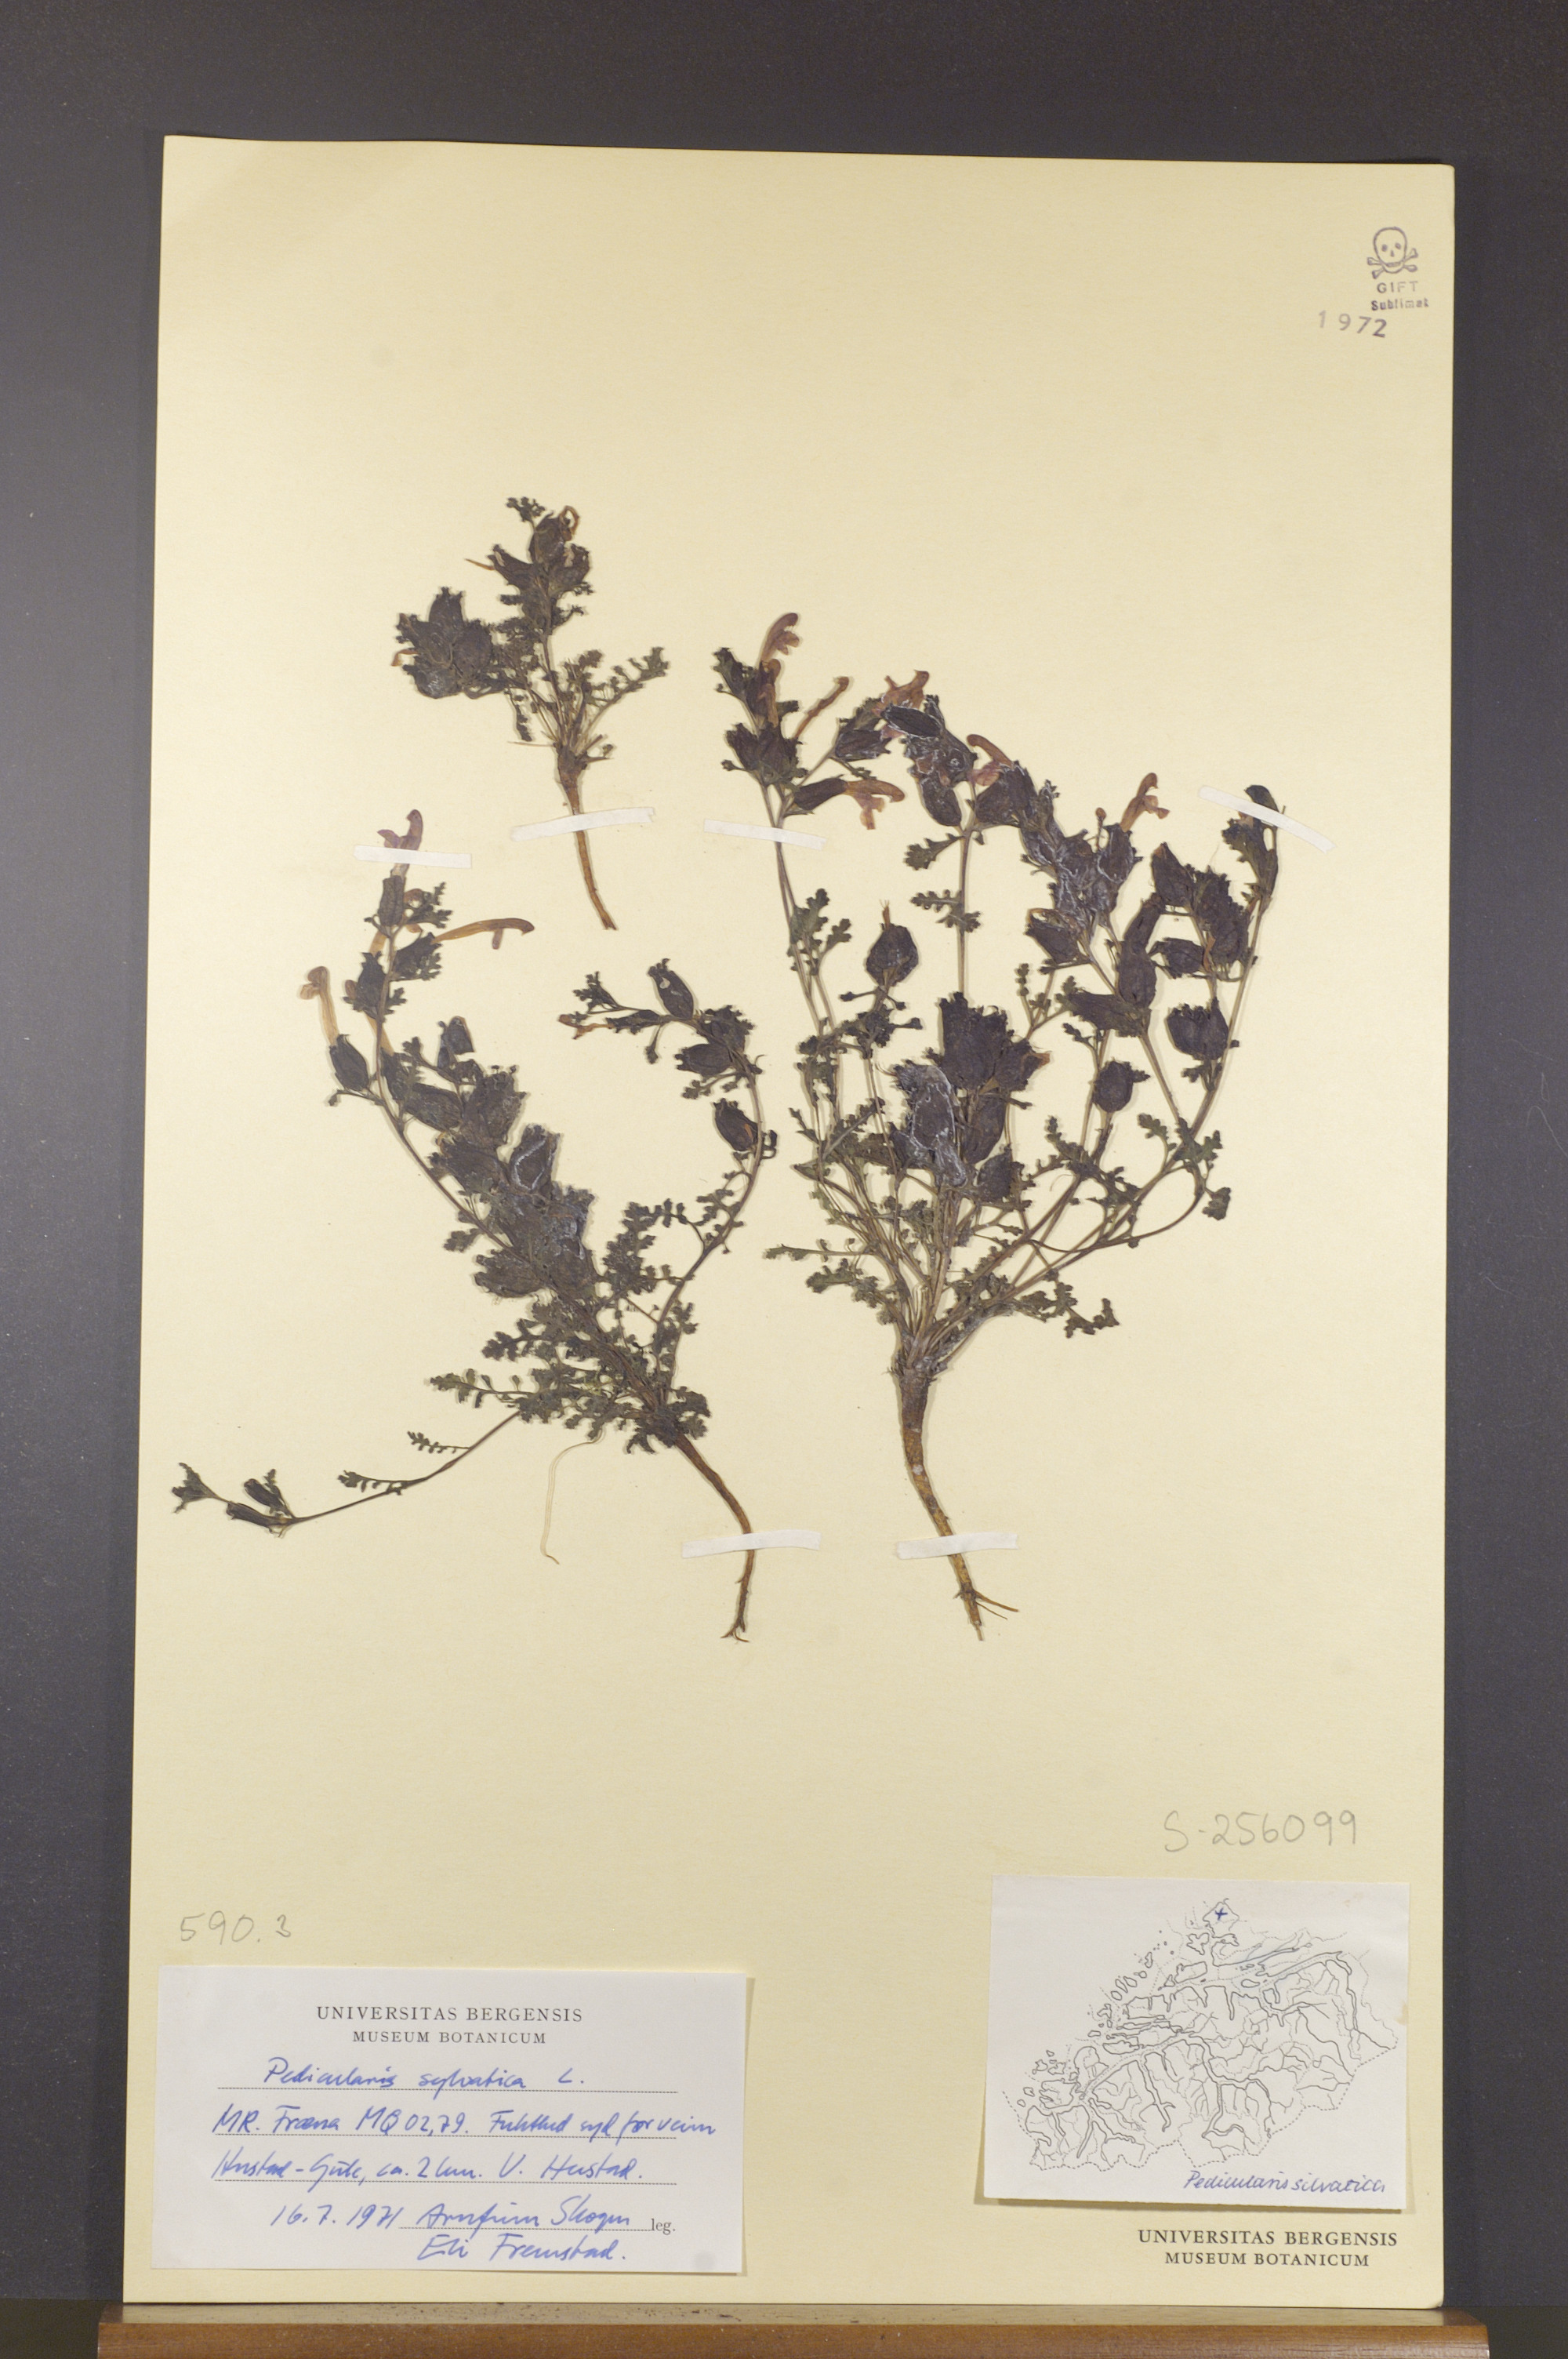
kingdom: Plantae
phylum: Tracheophyta
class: Magnoliopsida
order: Lamiales
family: Orobanchaceae
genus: Pedicularis
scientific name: Pedicularis sylvatica
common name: Lousewort
